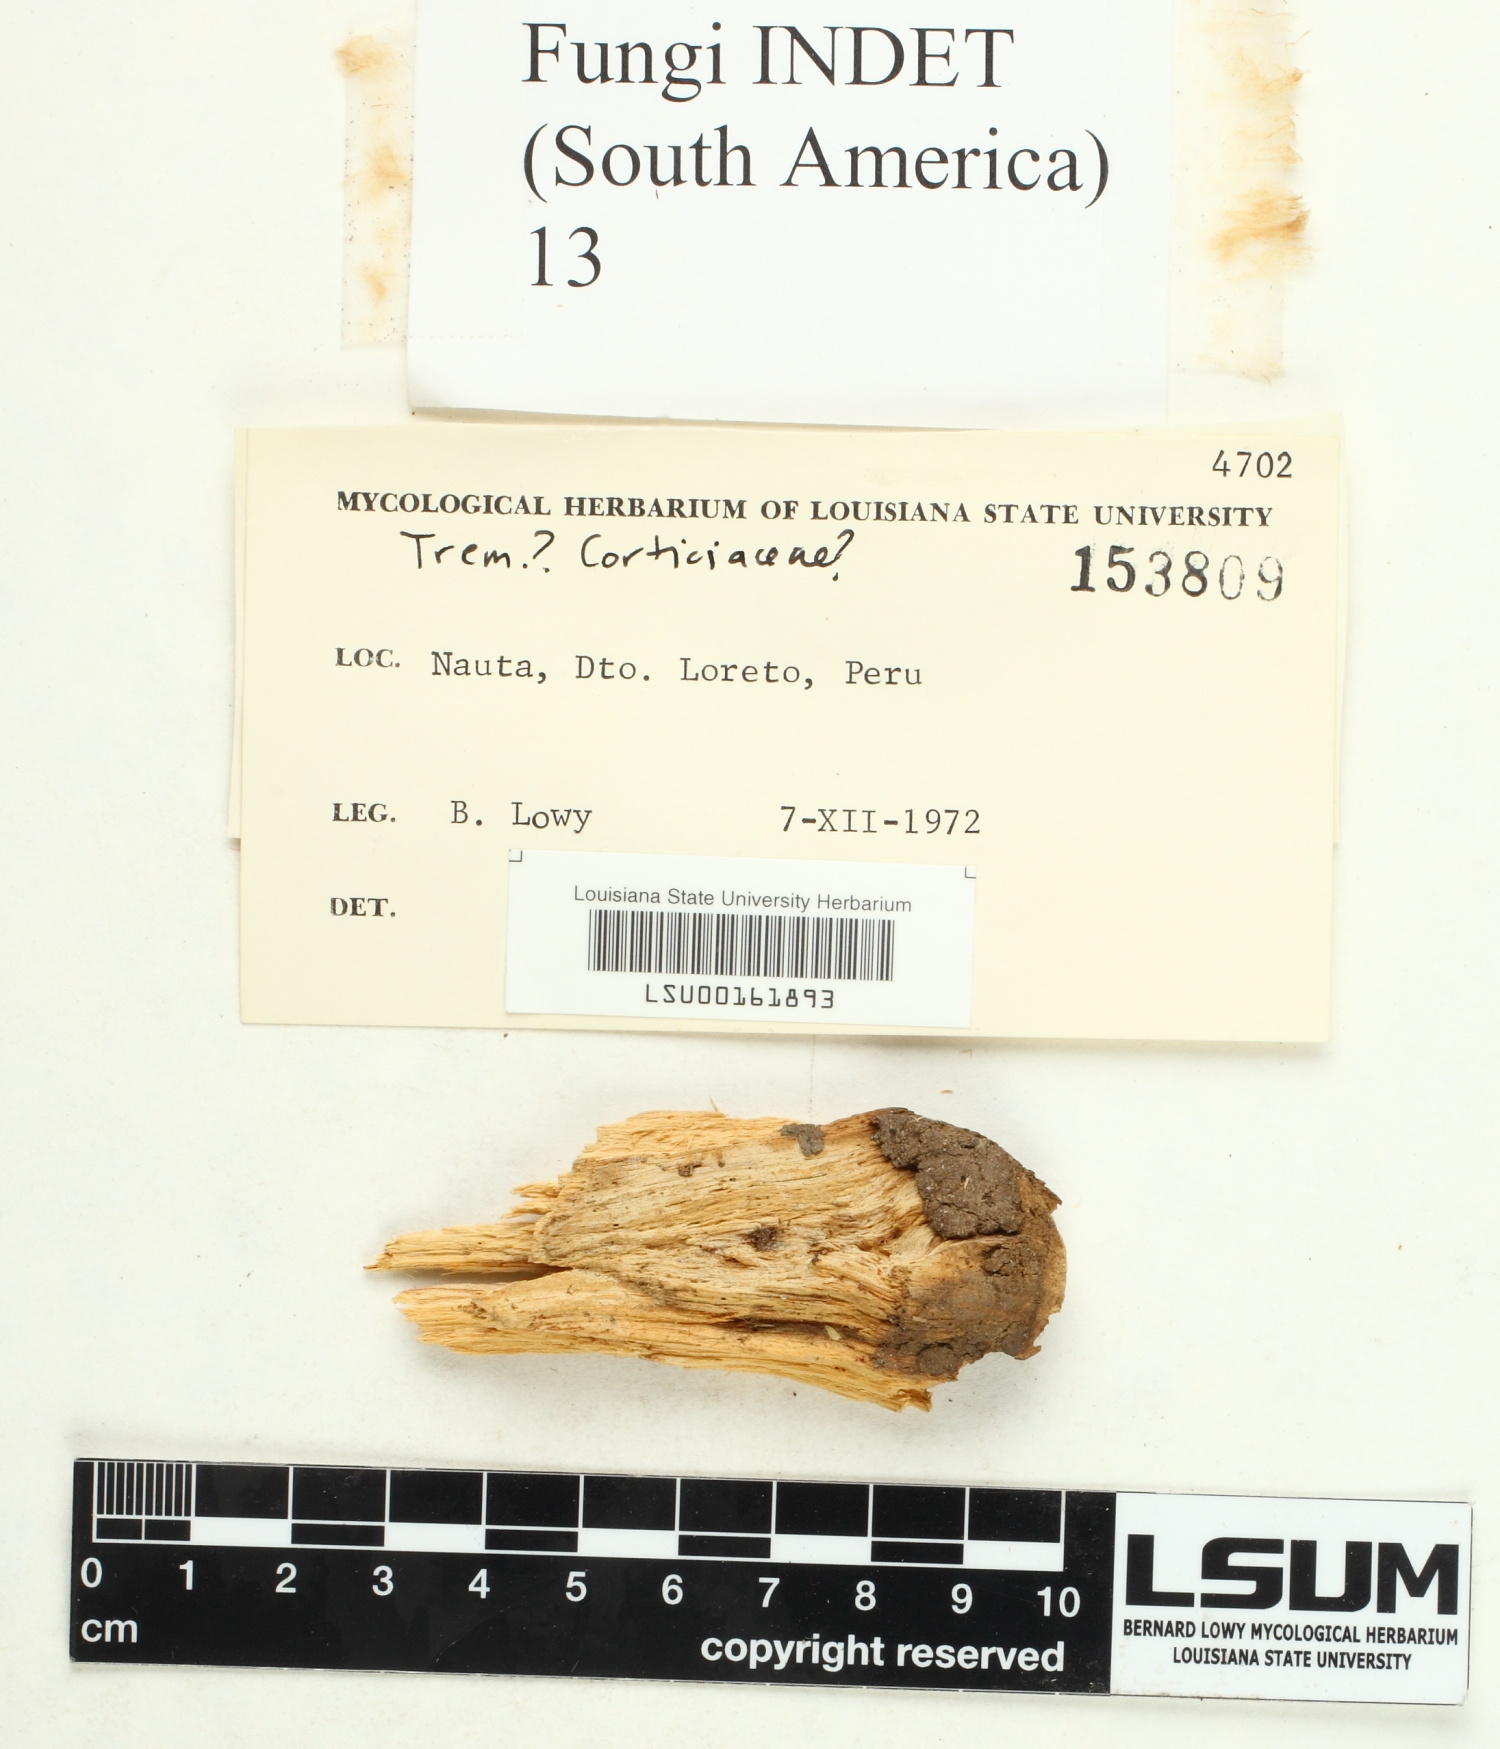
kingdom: Fungi
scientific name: Fungi
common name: Fungi
